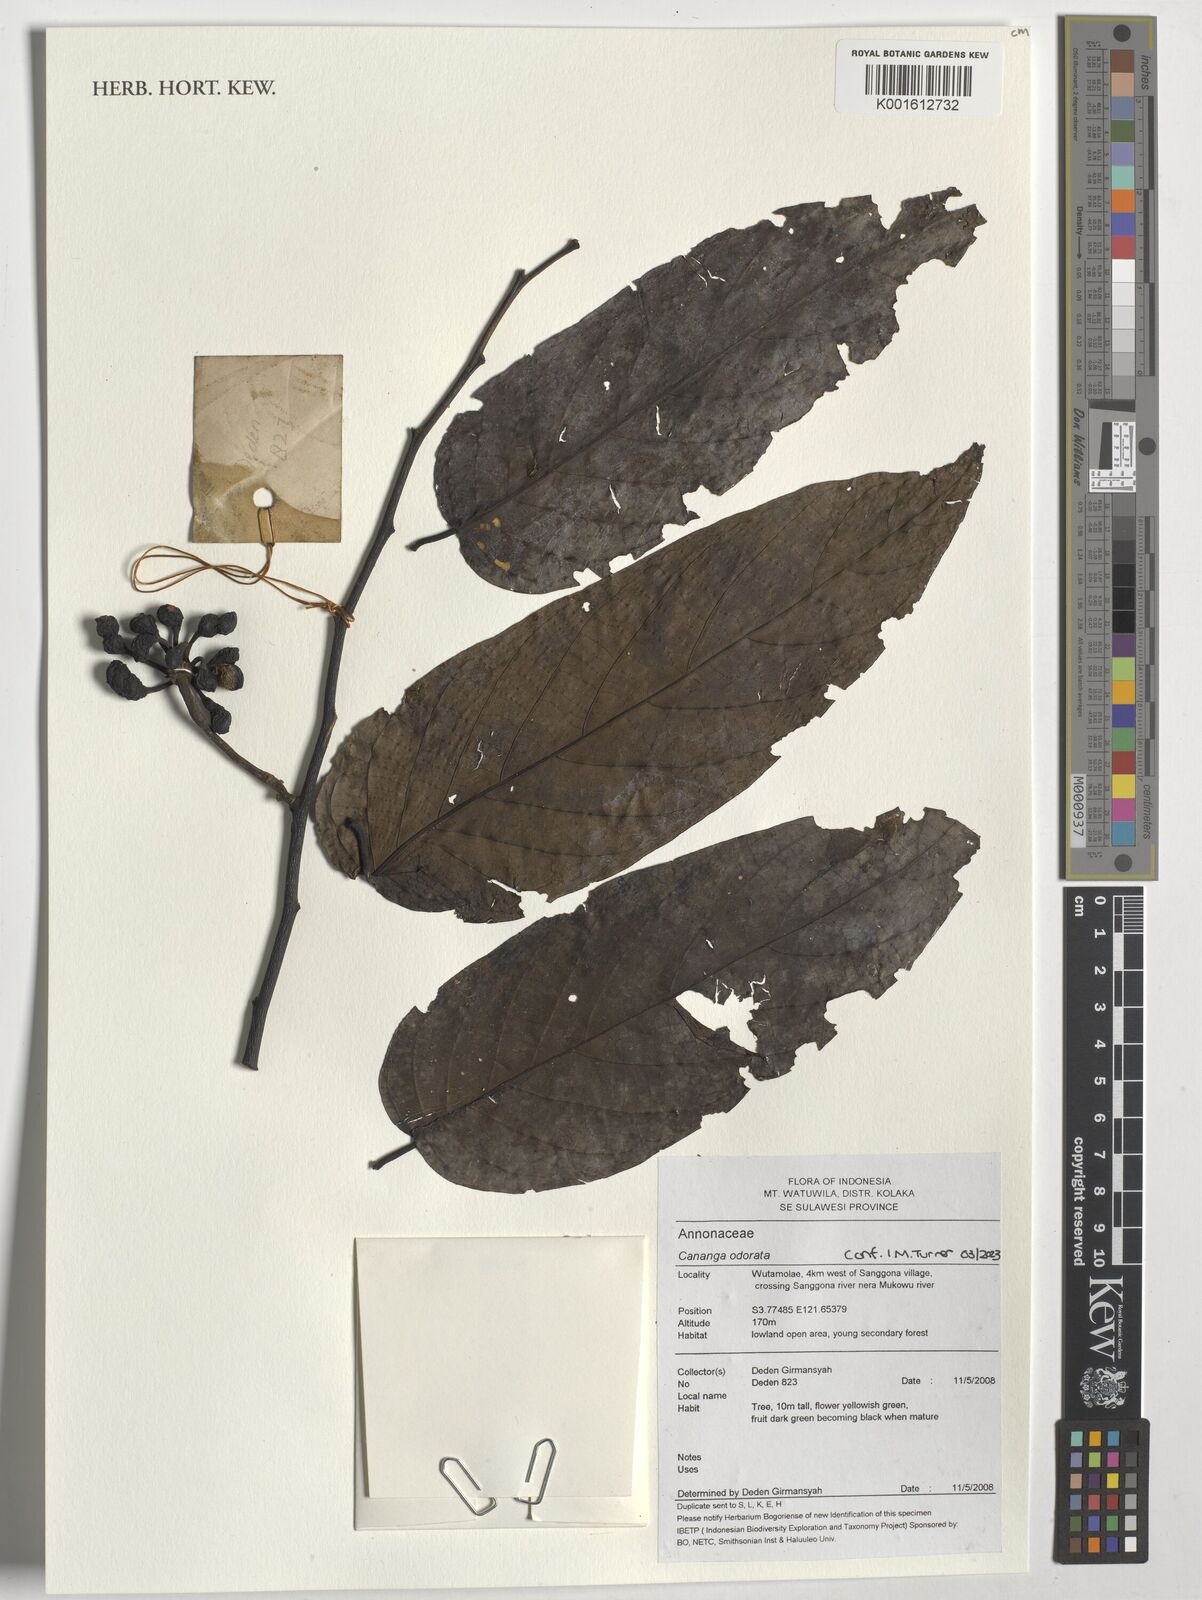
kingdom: Plantae
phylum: Tracheophyta
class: Magnoliopsida
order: Magnoliales
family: Annonaceae
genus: Cananga
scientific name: Cananga odorata
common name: Cananga tree
